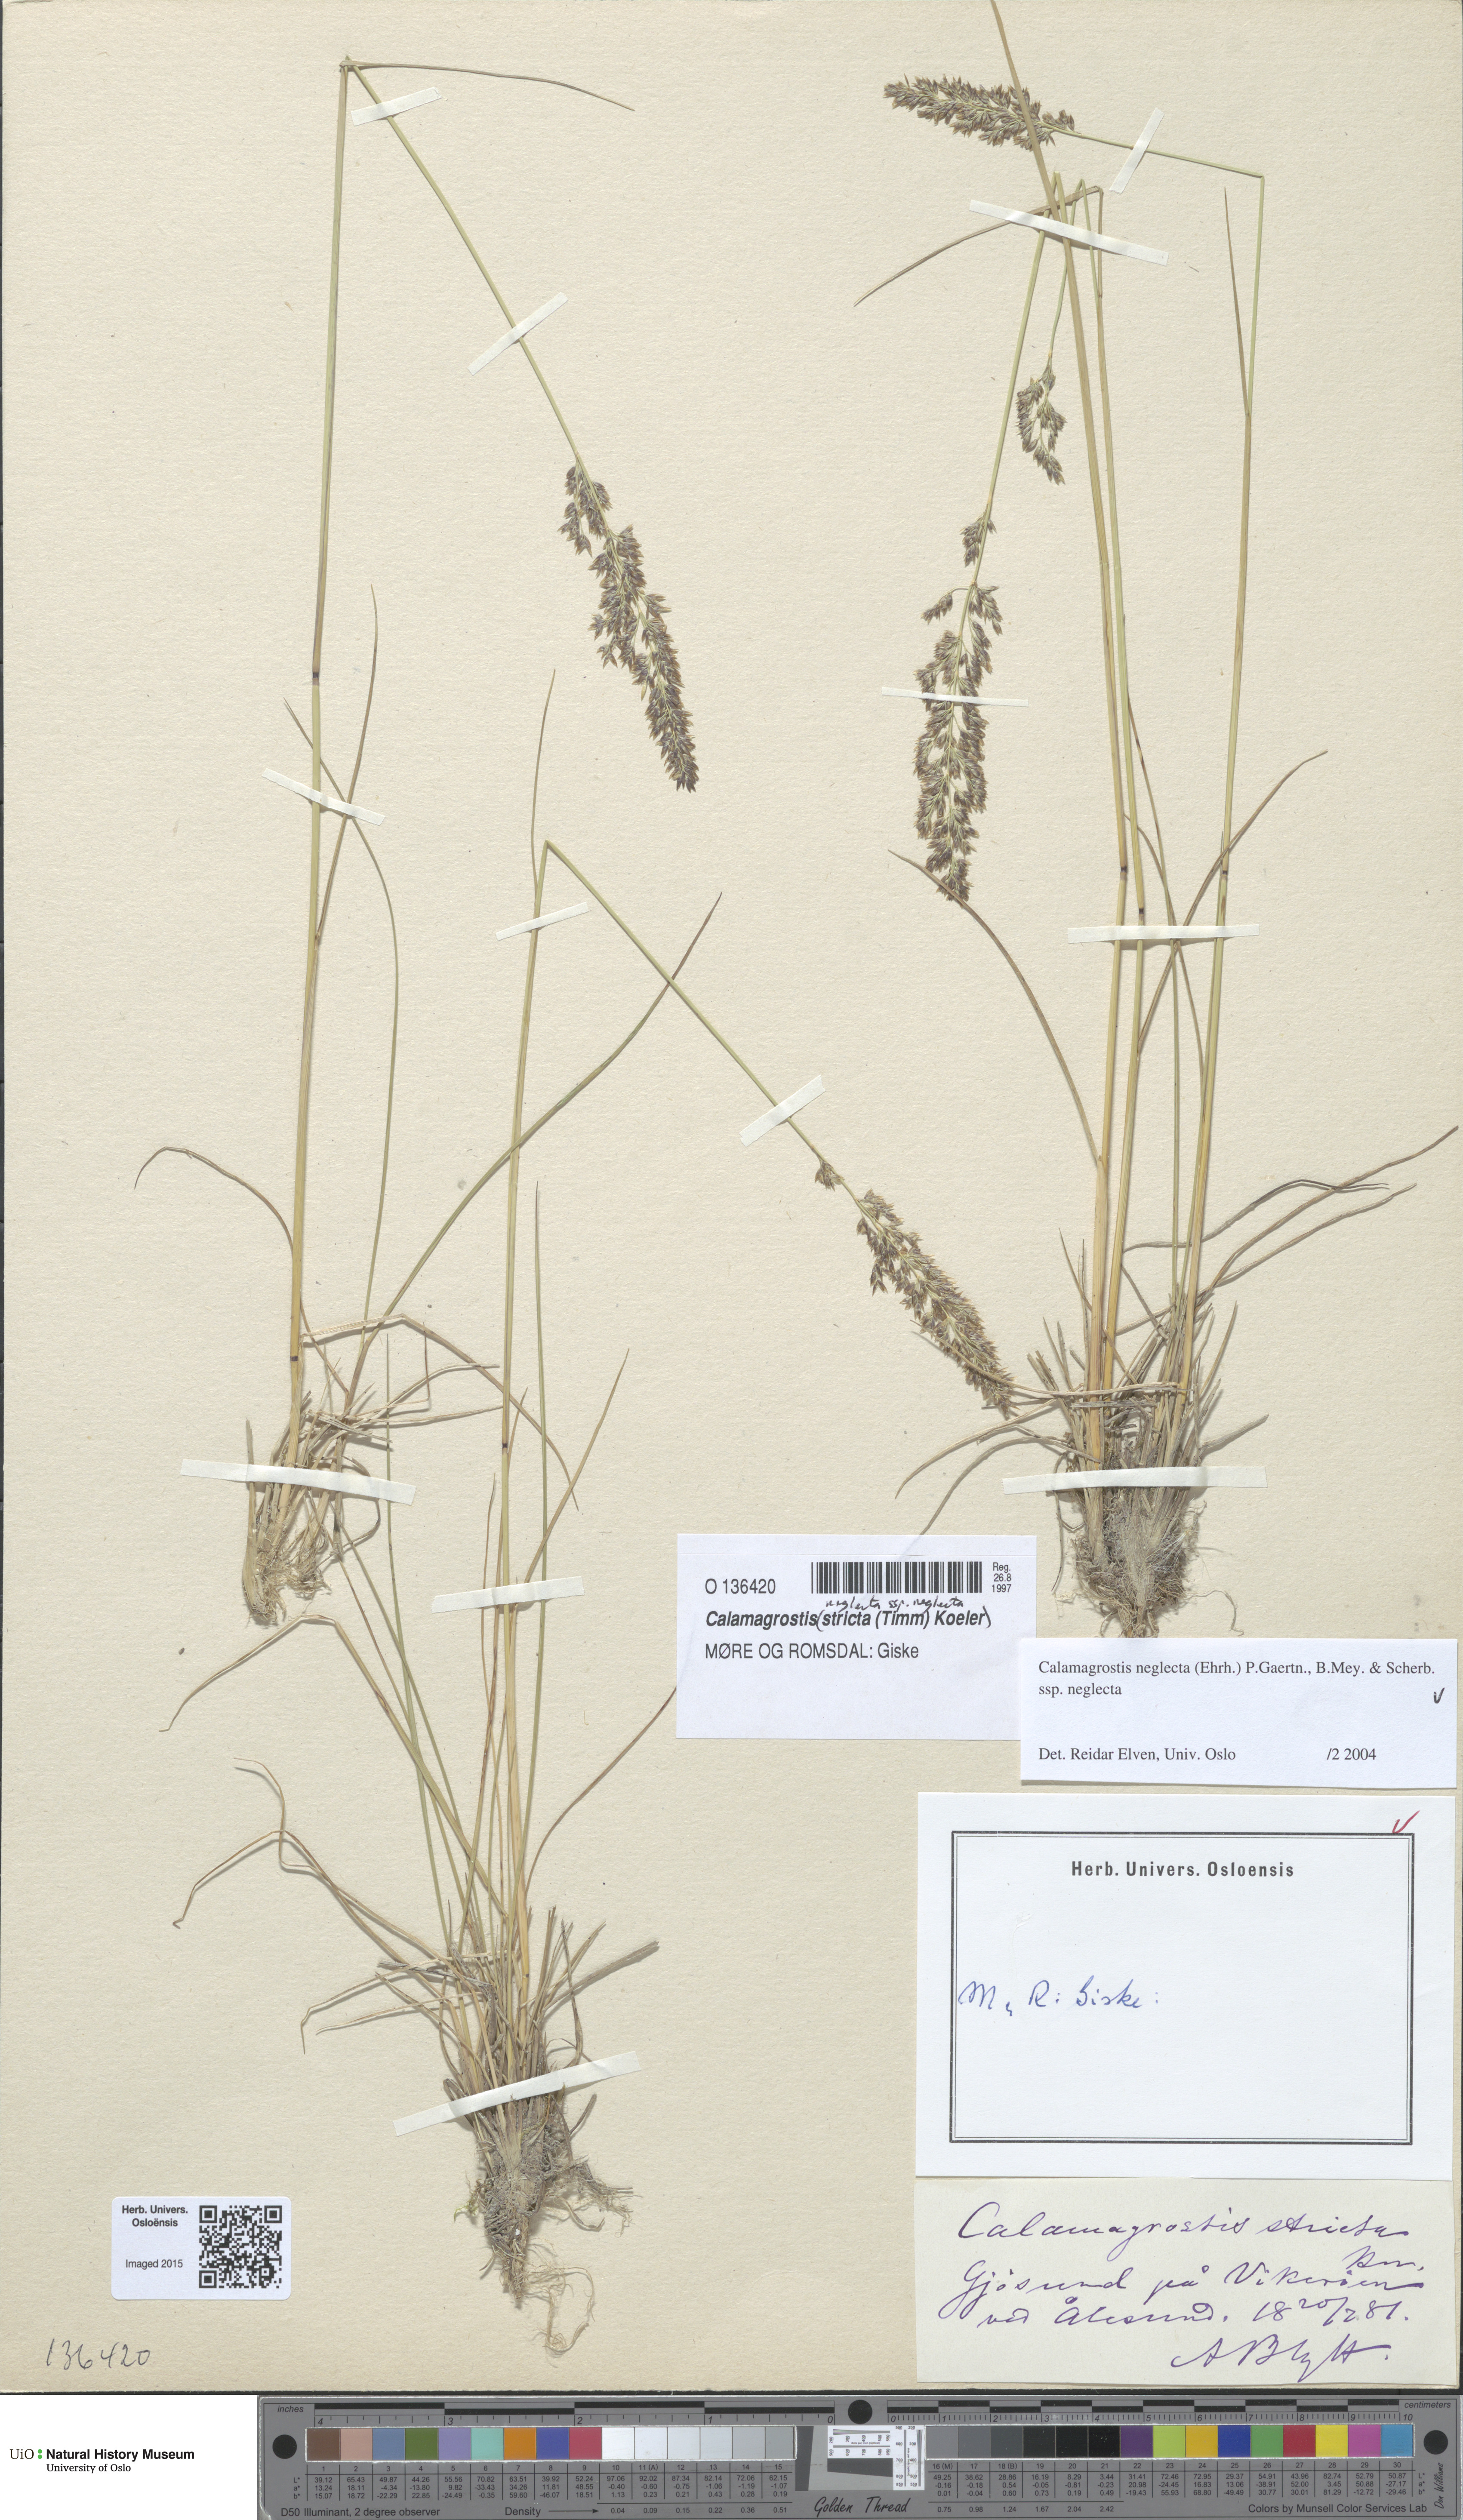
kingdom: Plantae
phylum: Tracheophyta
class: Liliopsida
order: Poales
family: Poaceae
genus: Achnatherum
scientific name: Achnatherum calamagrostis
